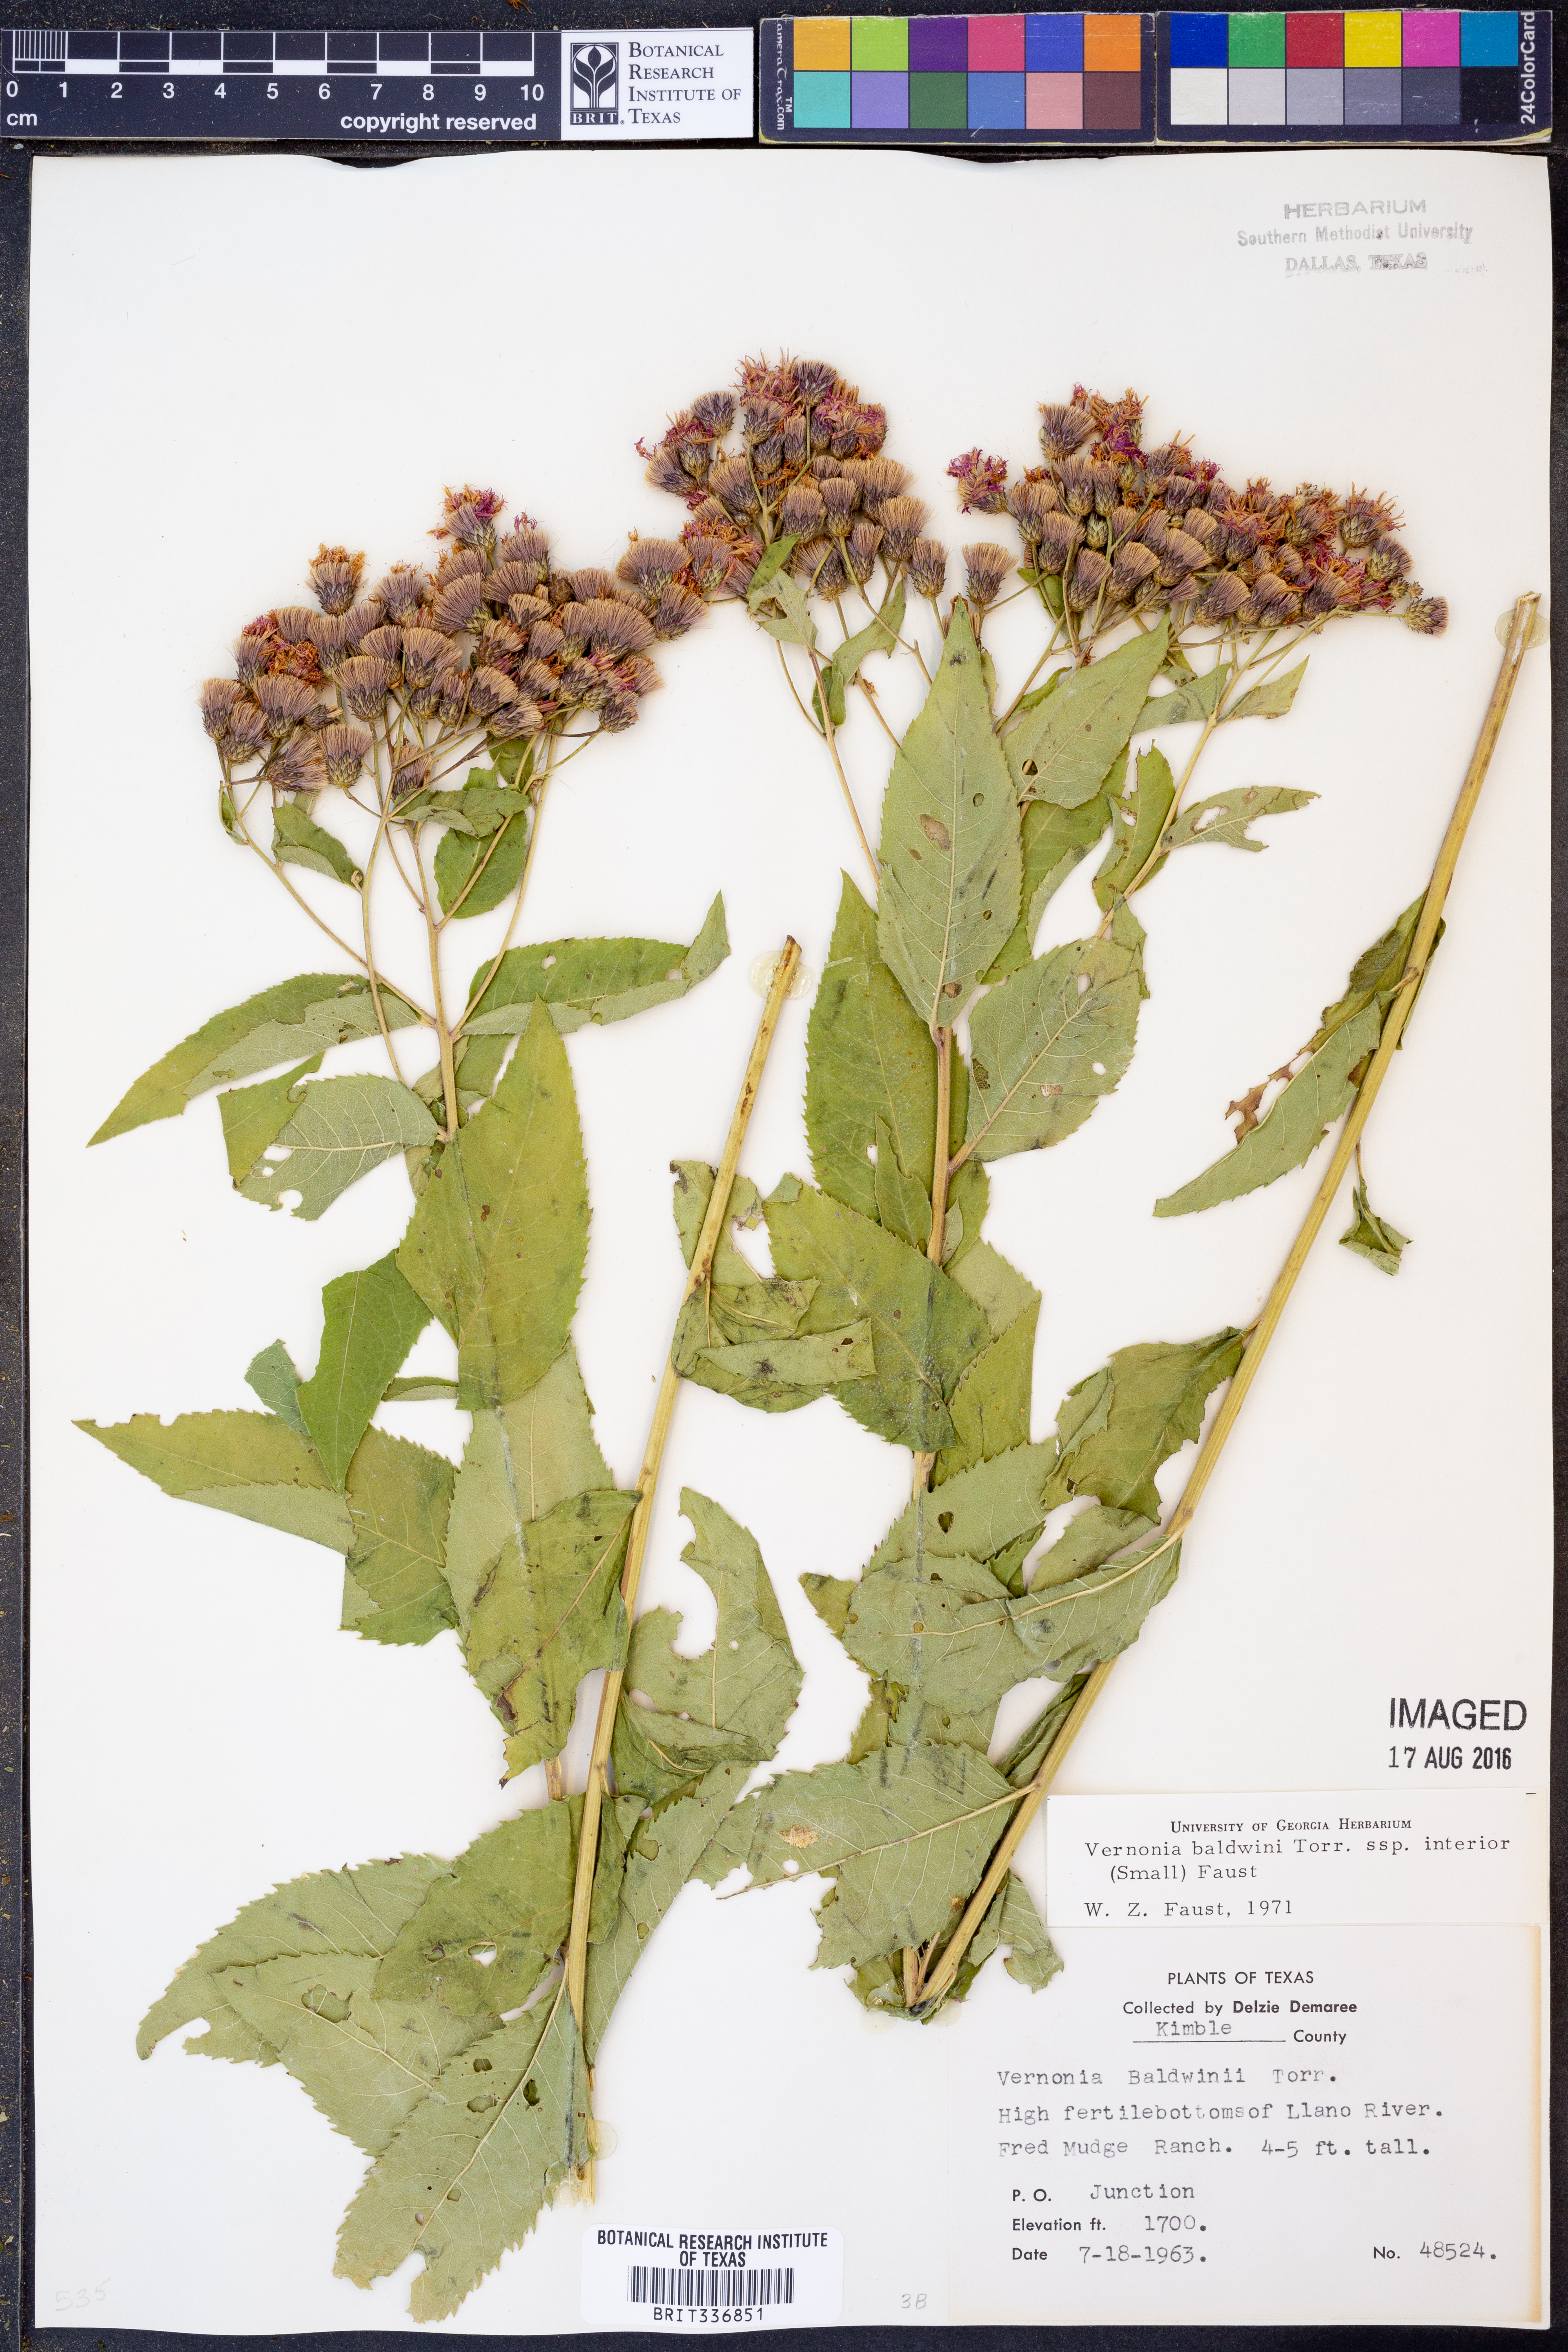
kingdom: Plantae
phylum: Tracheophyta
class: Magnoliopsida
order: Asterales
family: Asteraceae
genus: Vernonia
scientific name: Vernonia baldwinii
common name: Western ironweed
